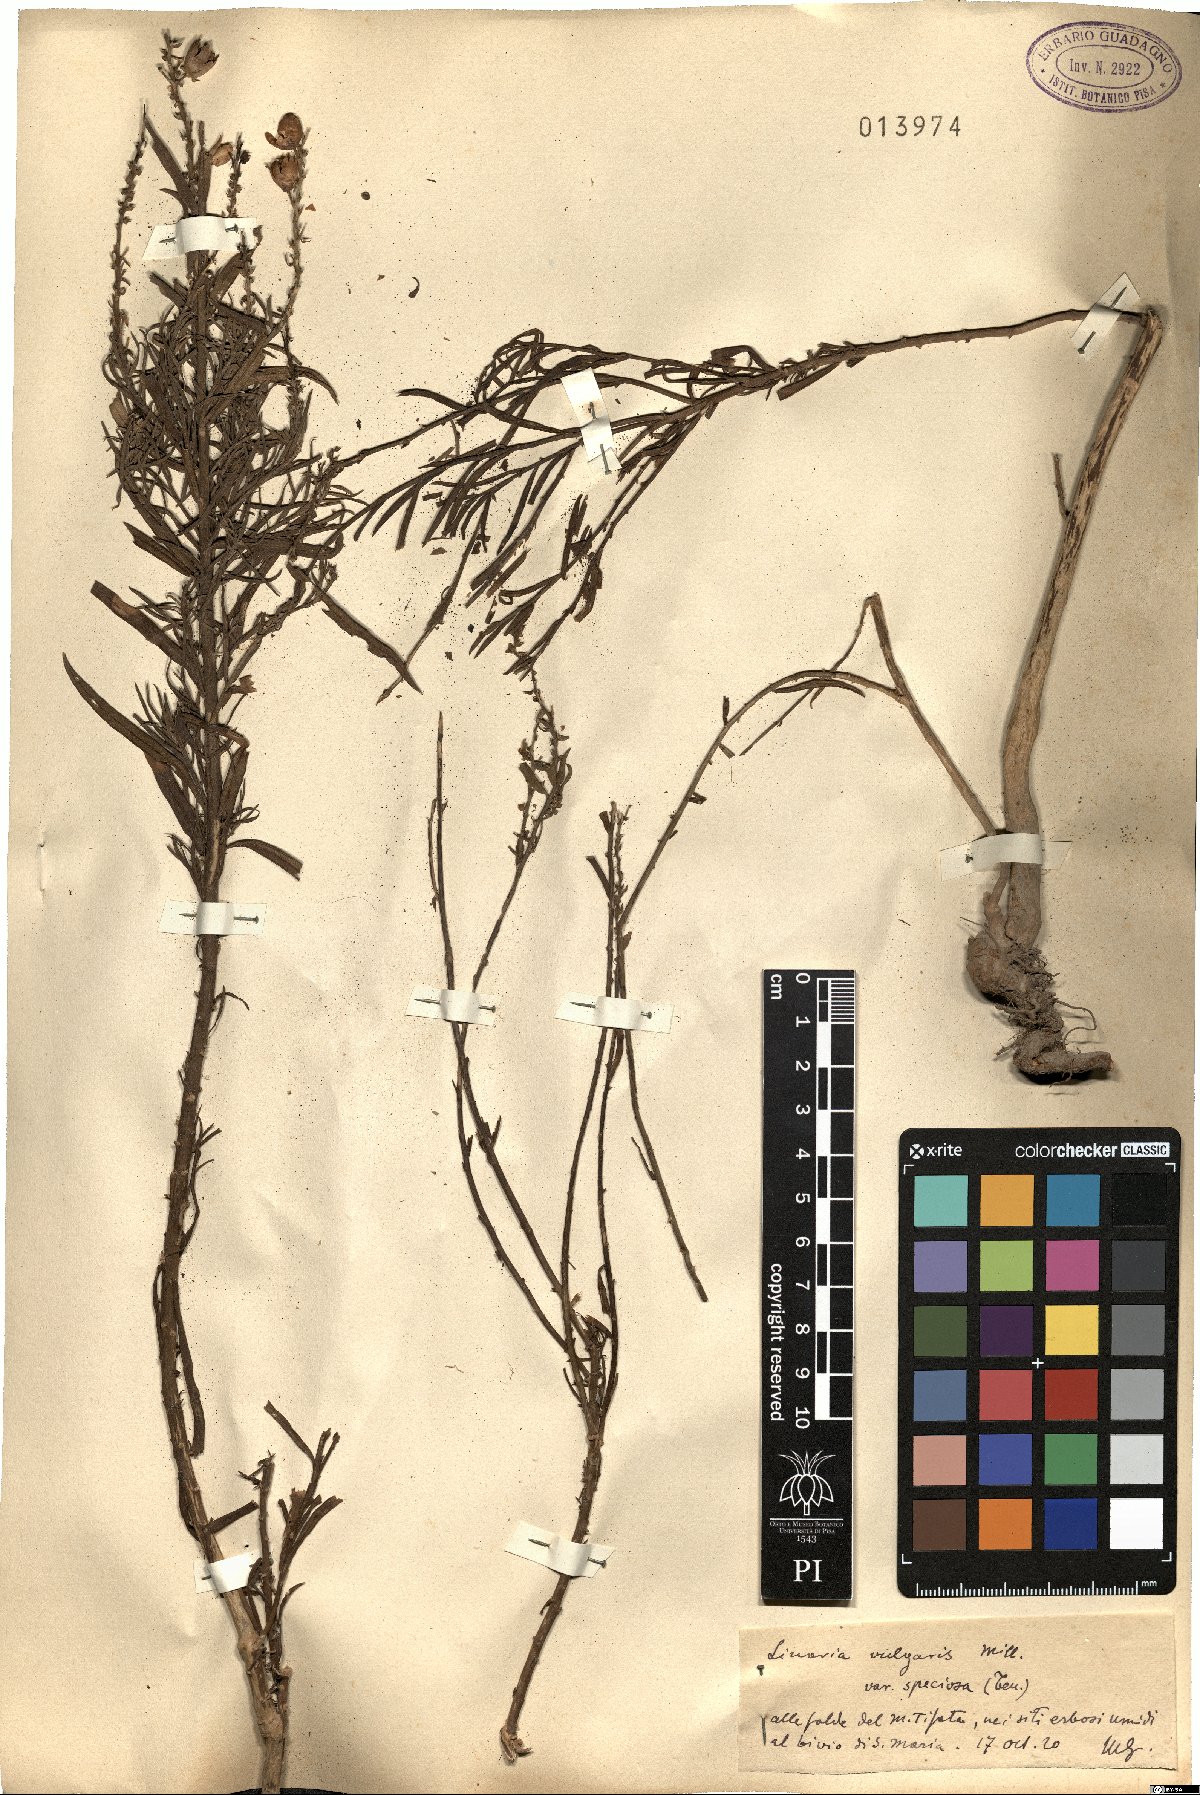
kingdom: Plantae
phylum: Tracheophyta
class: Magnoliopsida
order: Lamiales
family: Plantaginaceae
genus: Linaria
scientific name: Linaria vulgaris
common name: Butter and eggs
